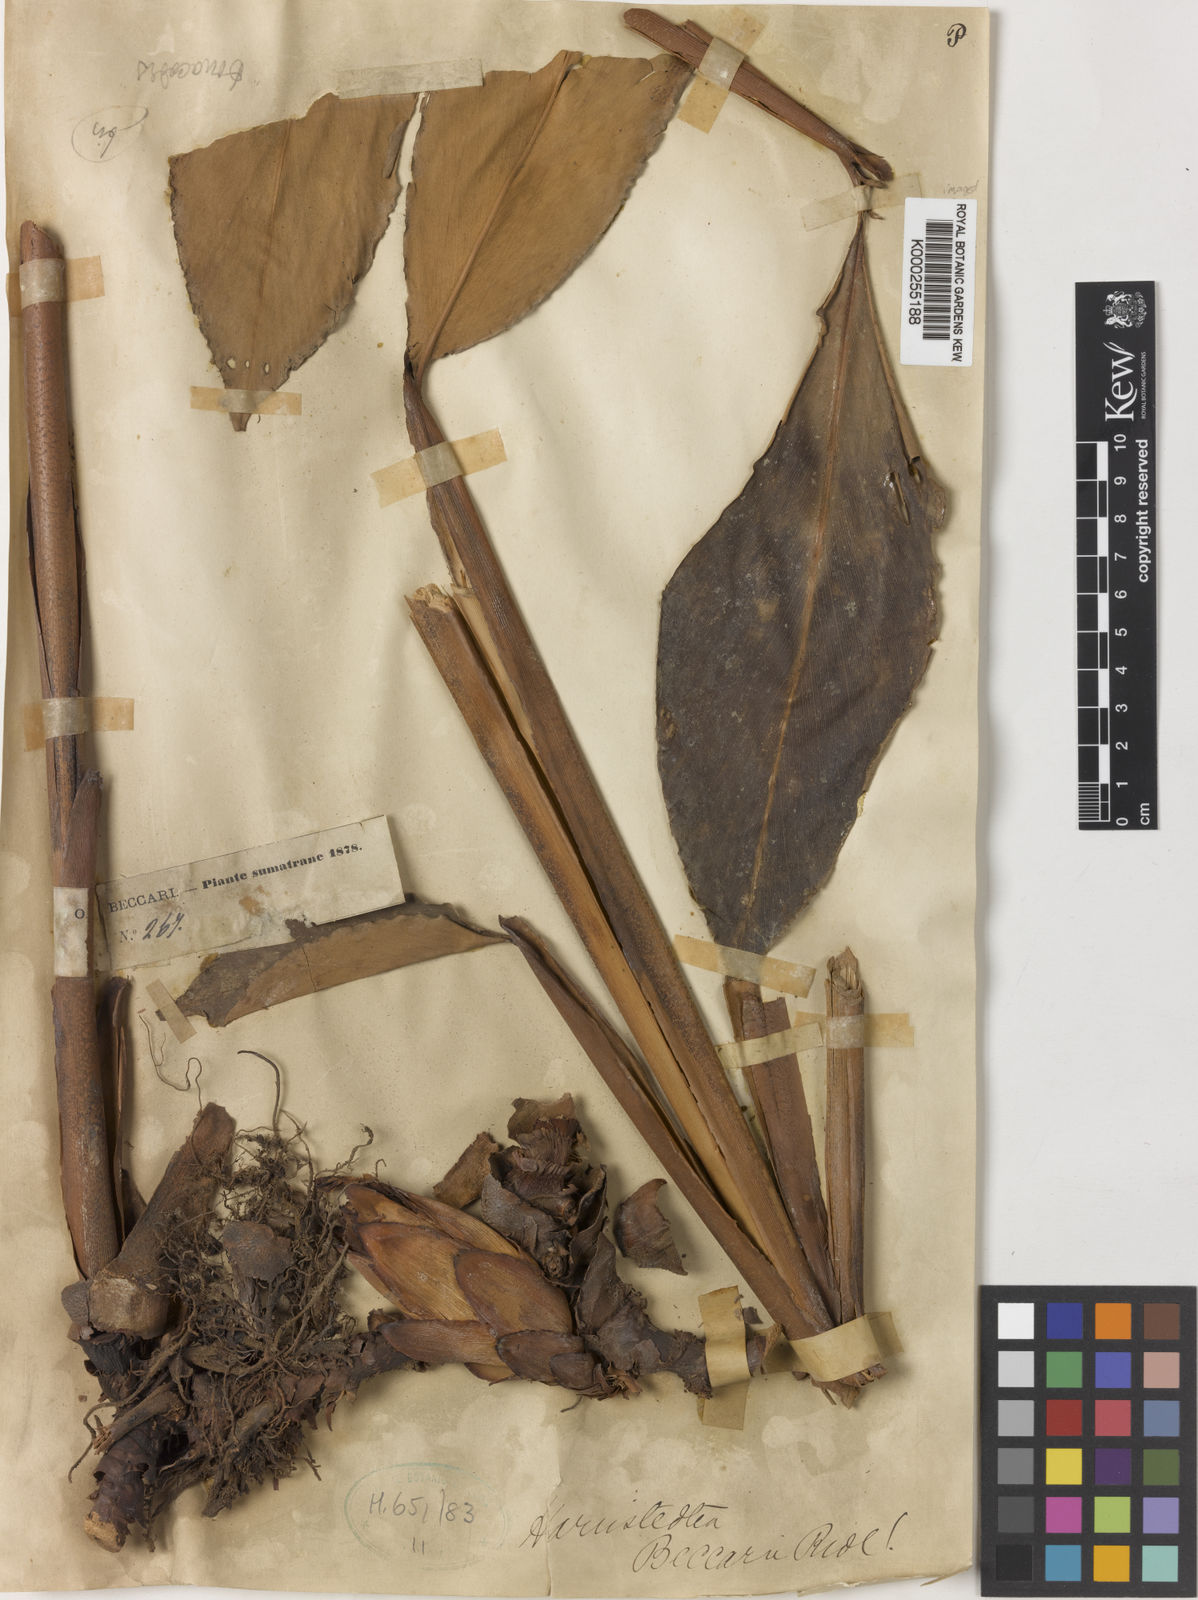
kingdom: Plantae
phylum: Tracheophyta
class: Liliopsida
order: Zingiberales
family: Zingiberaceae
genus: Amomum
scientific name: Amomum vestitum
